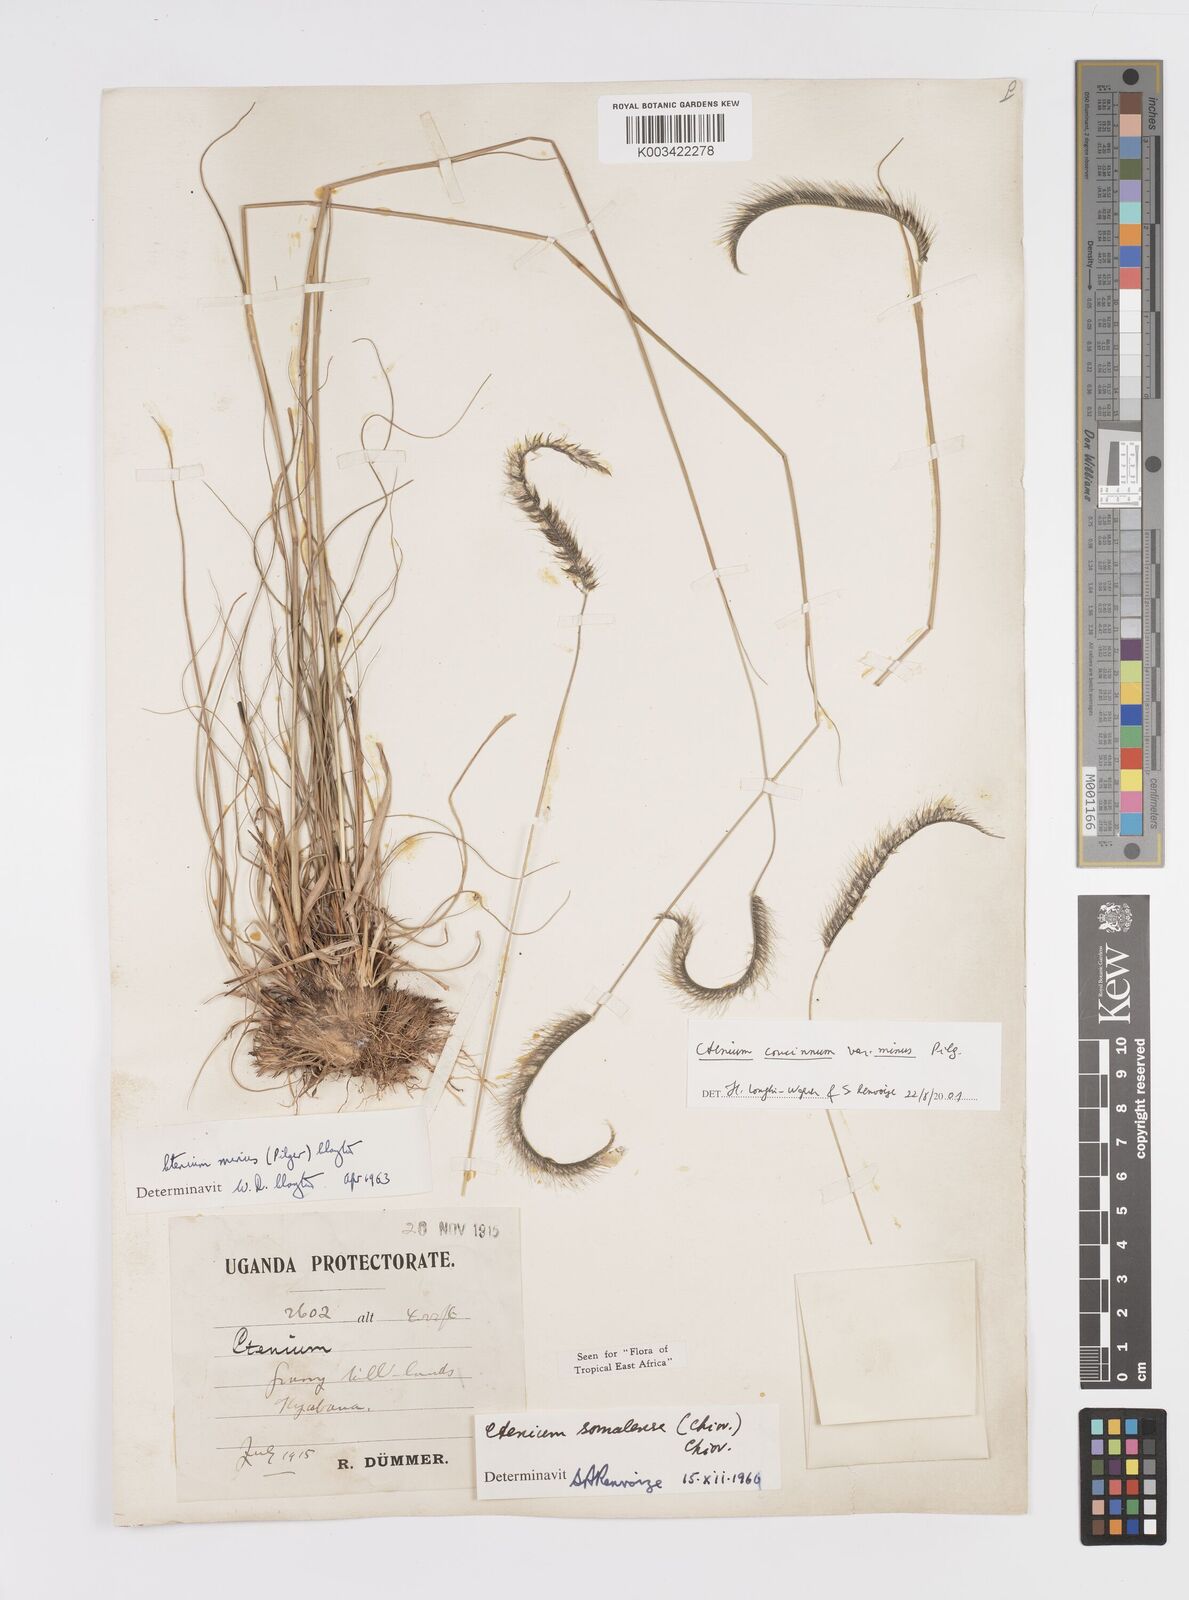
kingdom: Plantae
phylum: Tracheophyta
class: Liliopsida
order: Poales
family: Poaceae
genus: Ctenium
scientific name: Ctenium concinnum
